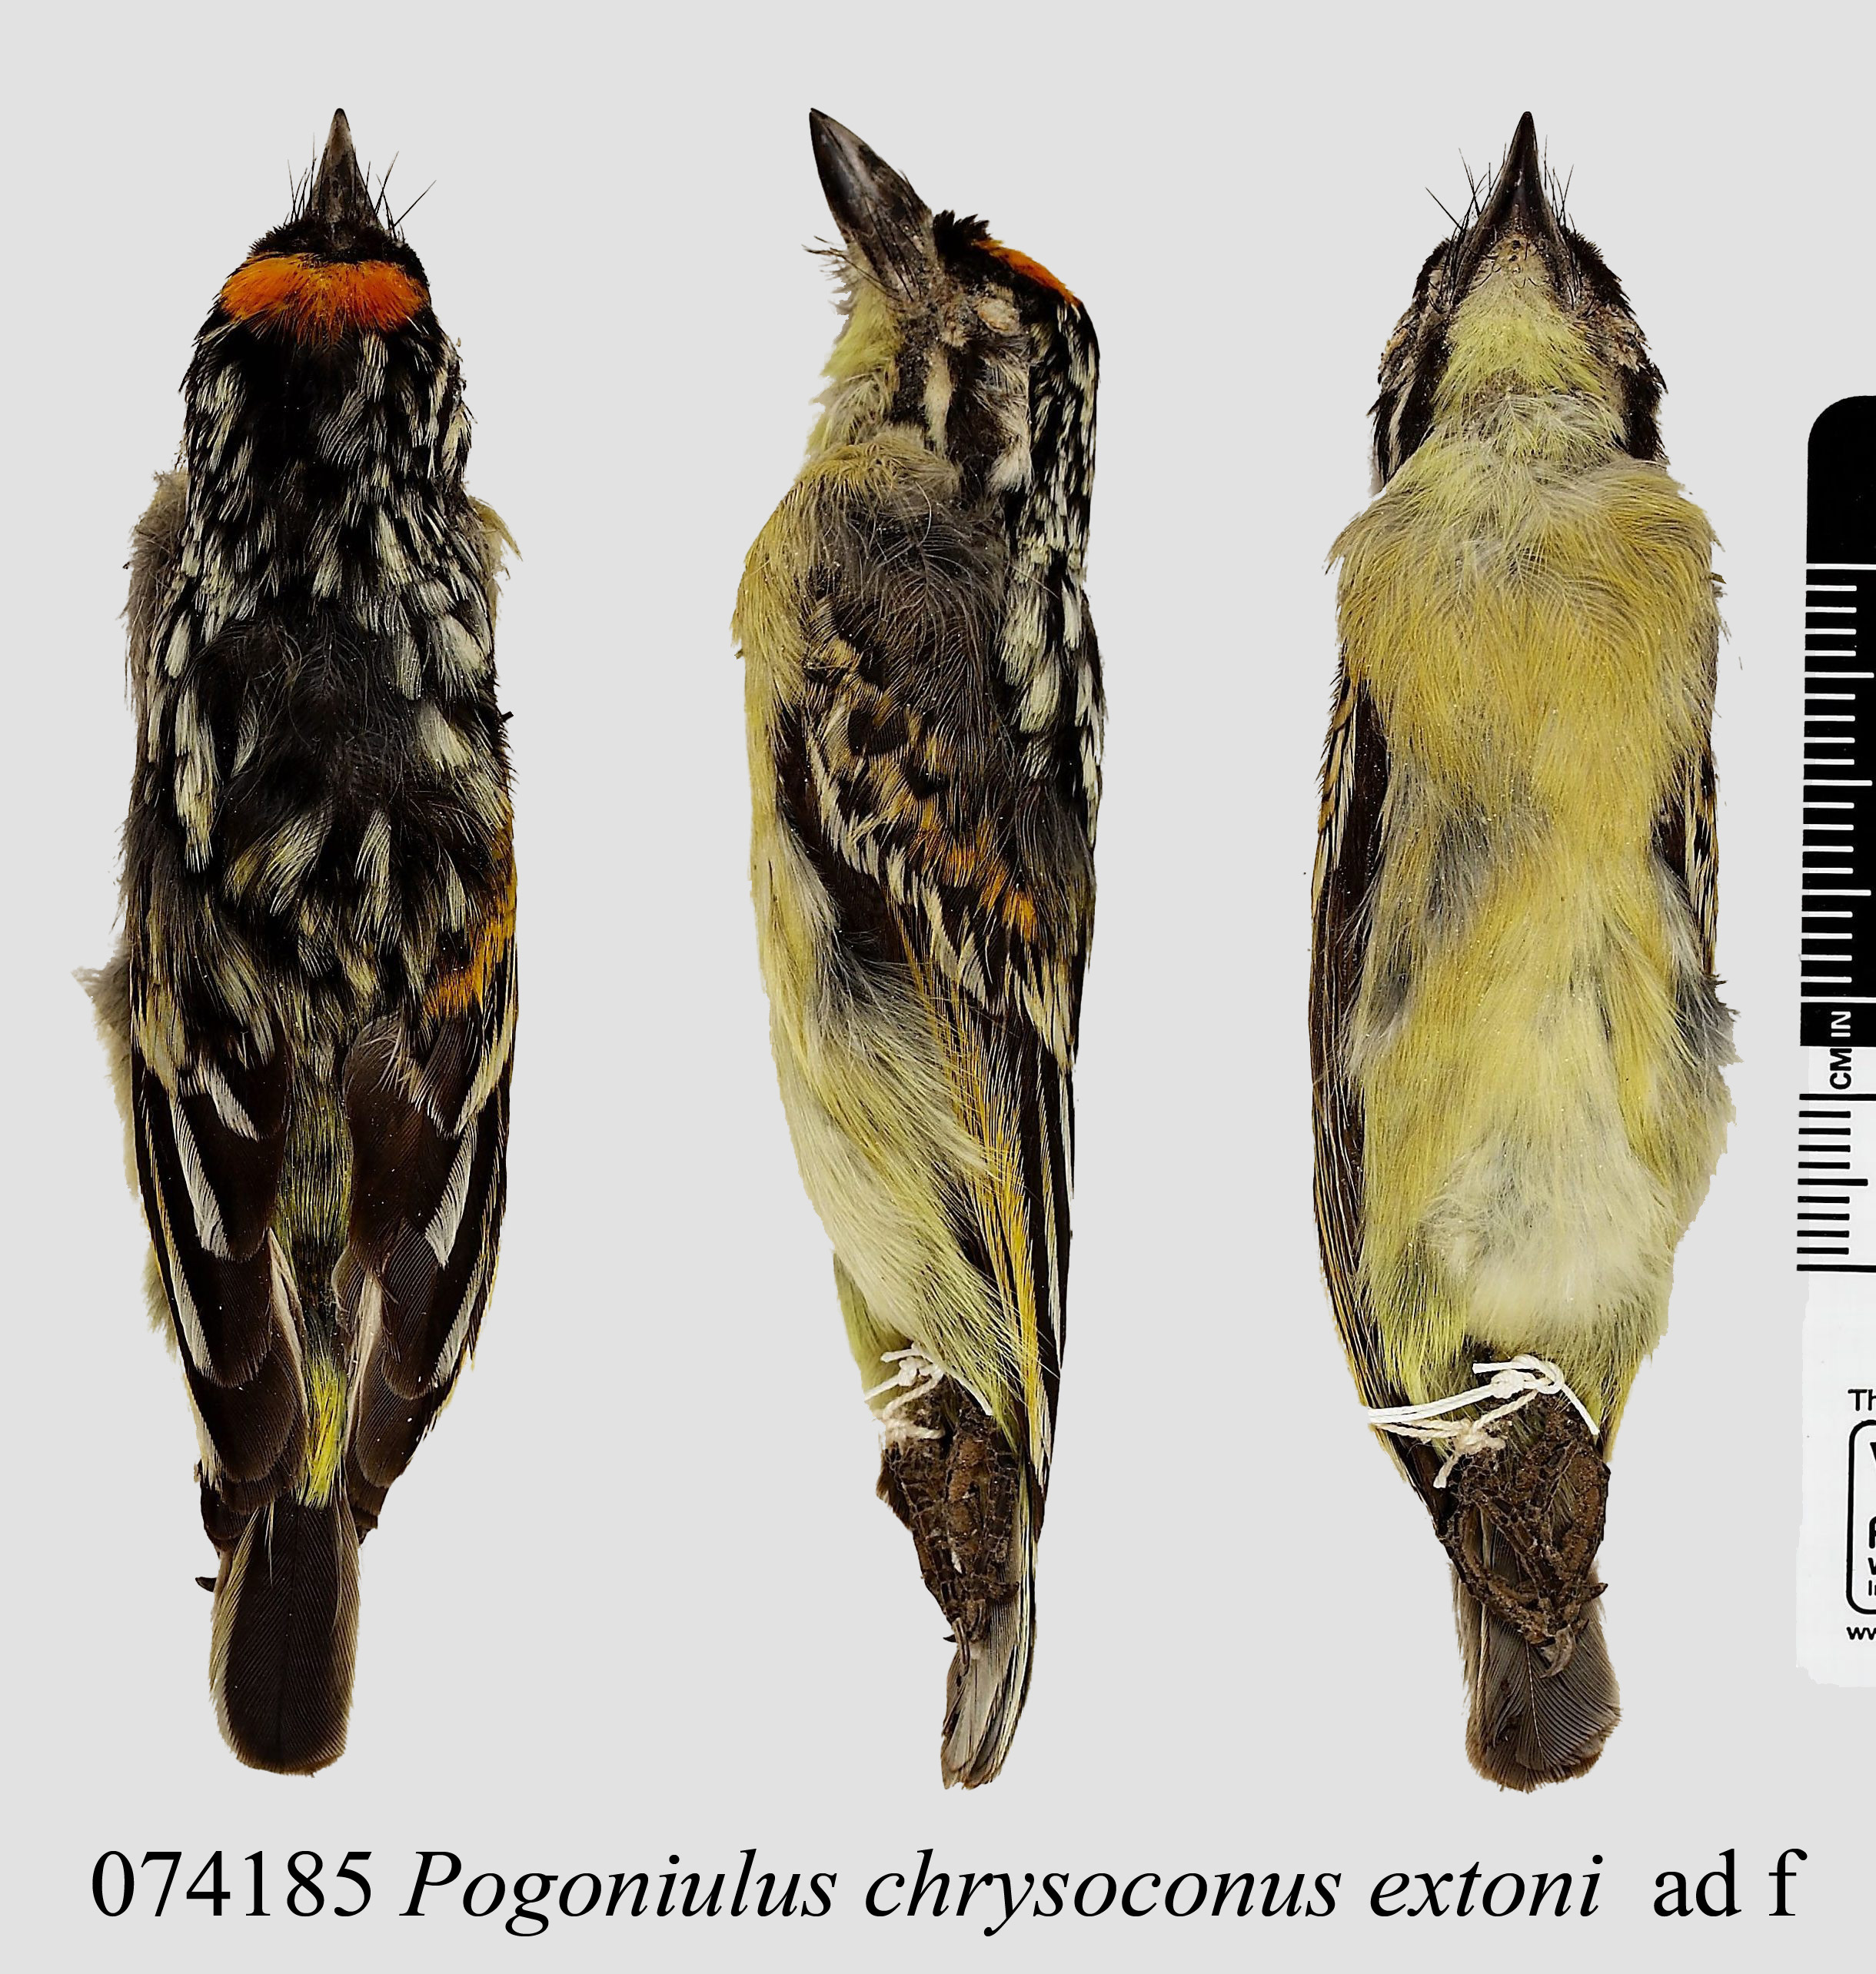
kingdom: Animalia
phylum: Chordata
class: Aves
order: Piciformes
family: Lybiidae
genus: Pogoniulus
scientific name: Pogoniulus chrysoconus
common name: Yellow-fronted tinkerbird
